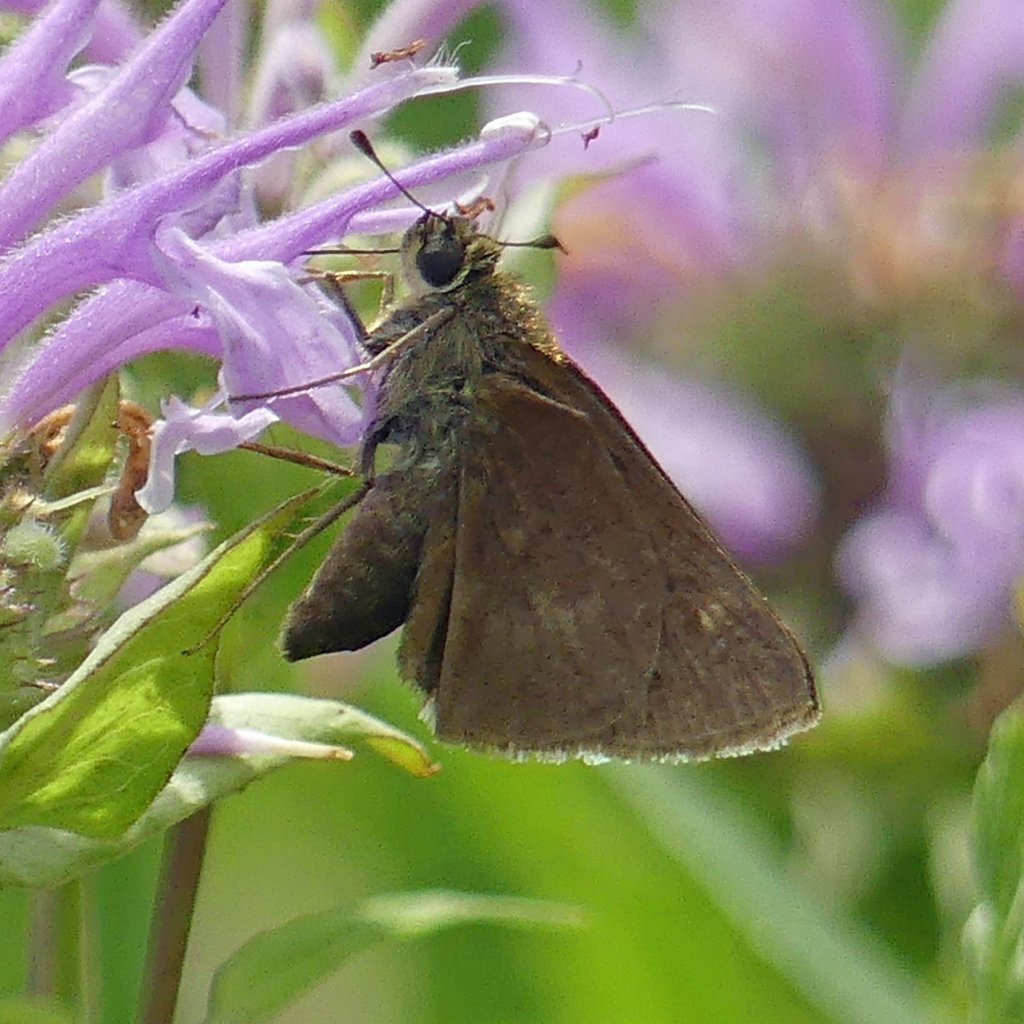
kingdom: Animalia
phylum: Arthropoda
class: Insecta
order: Lepidoptera
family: Hesperiidae
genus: Polites
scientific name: Polites egeremet
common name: Northern Broken-Dash
